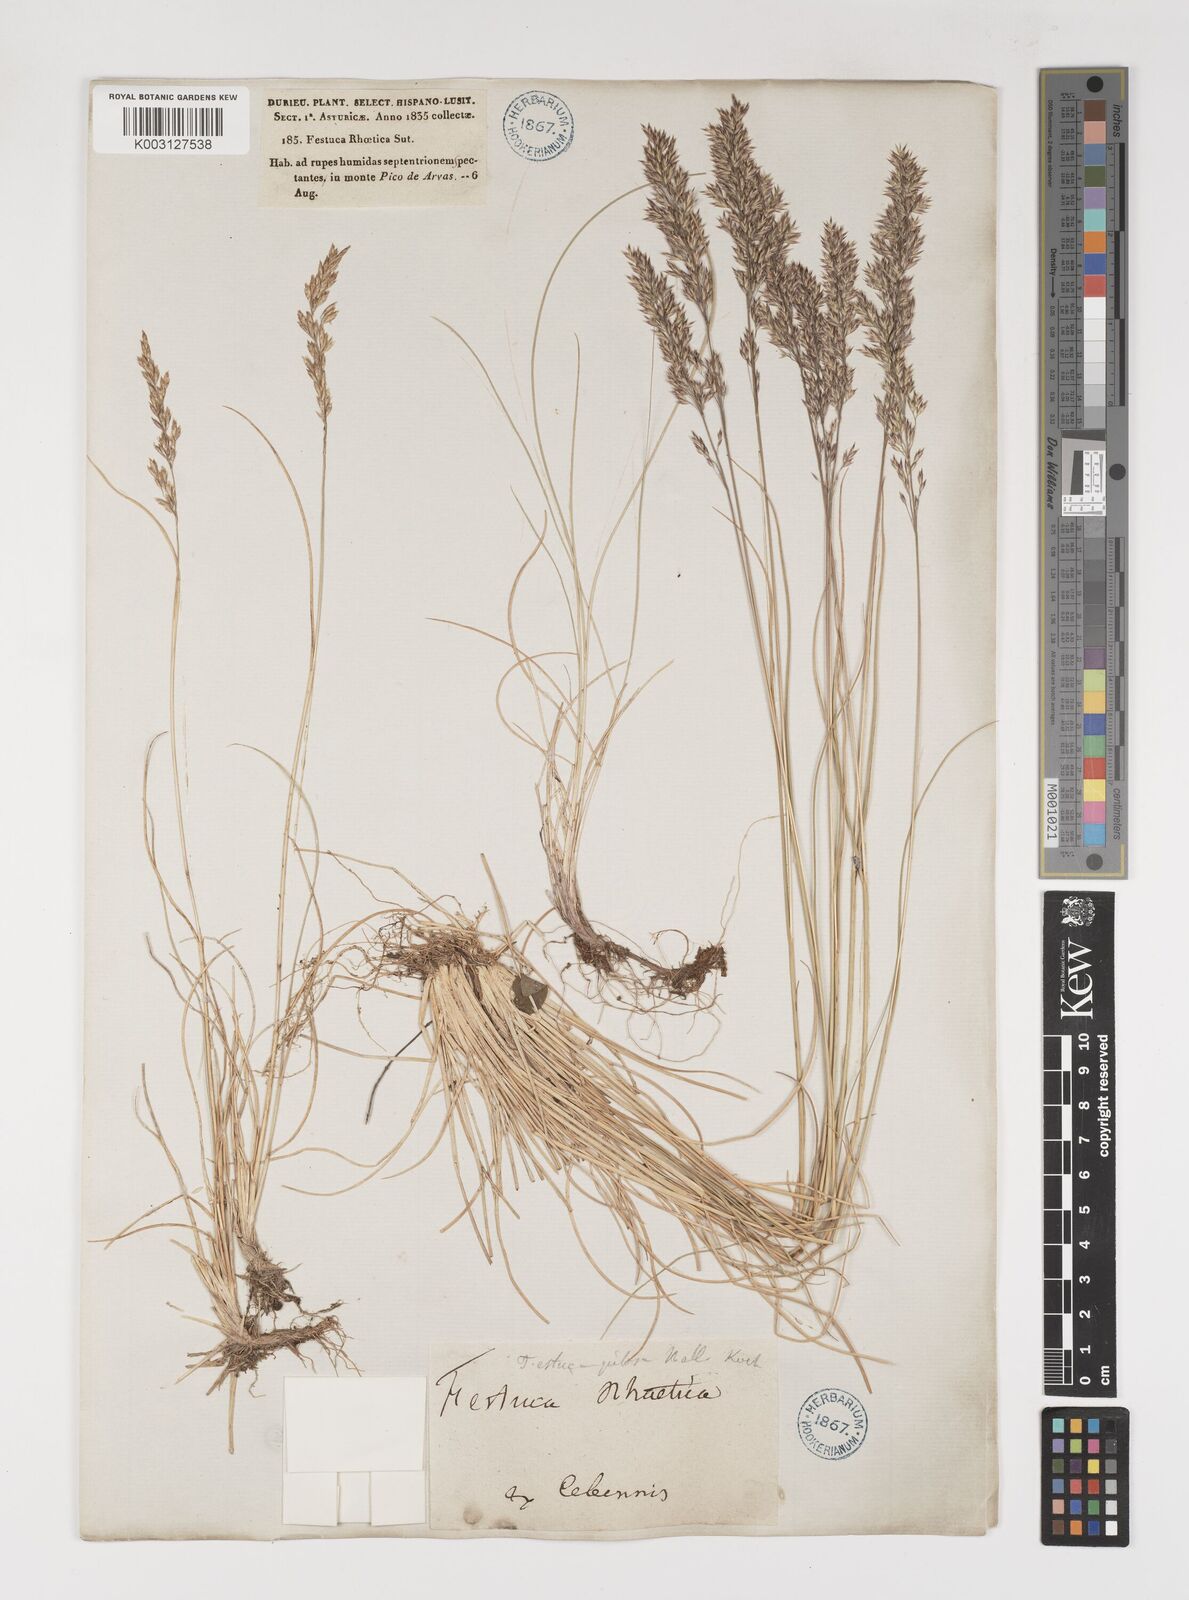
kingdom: Plantae
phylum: Tracheophyta
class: Liliopsida
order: Poales
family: Poaceae
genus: Bellardiochloa
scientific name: Bellardiochloa variegata
